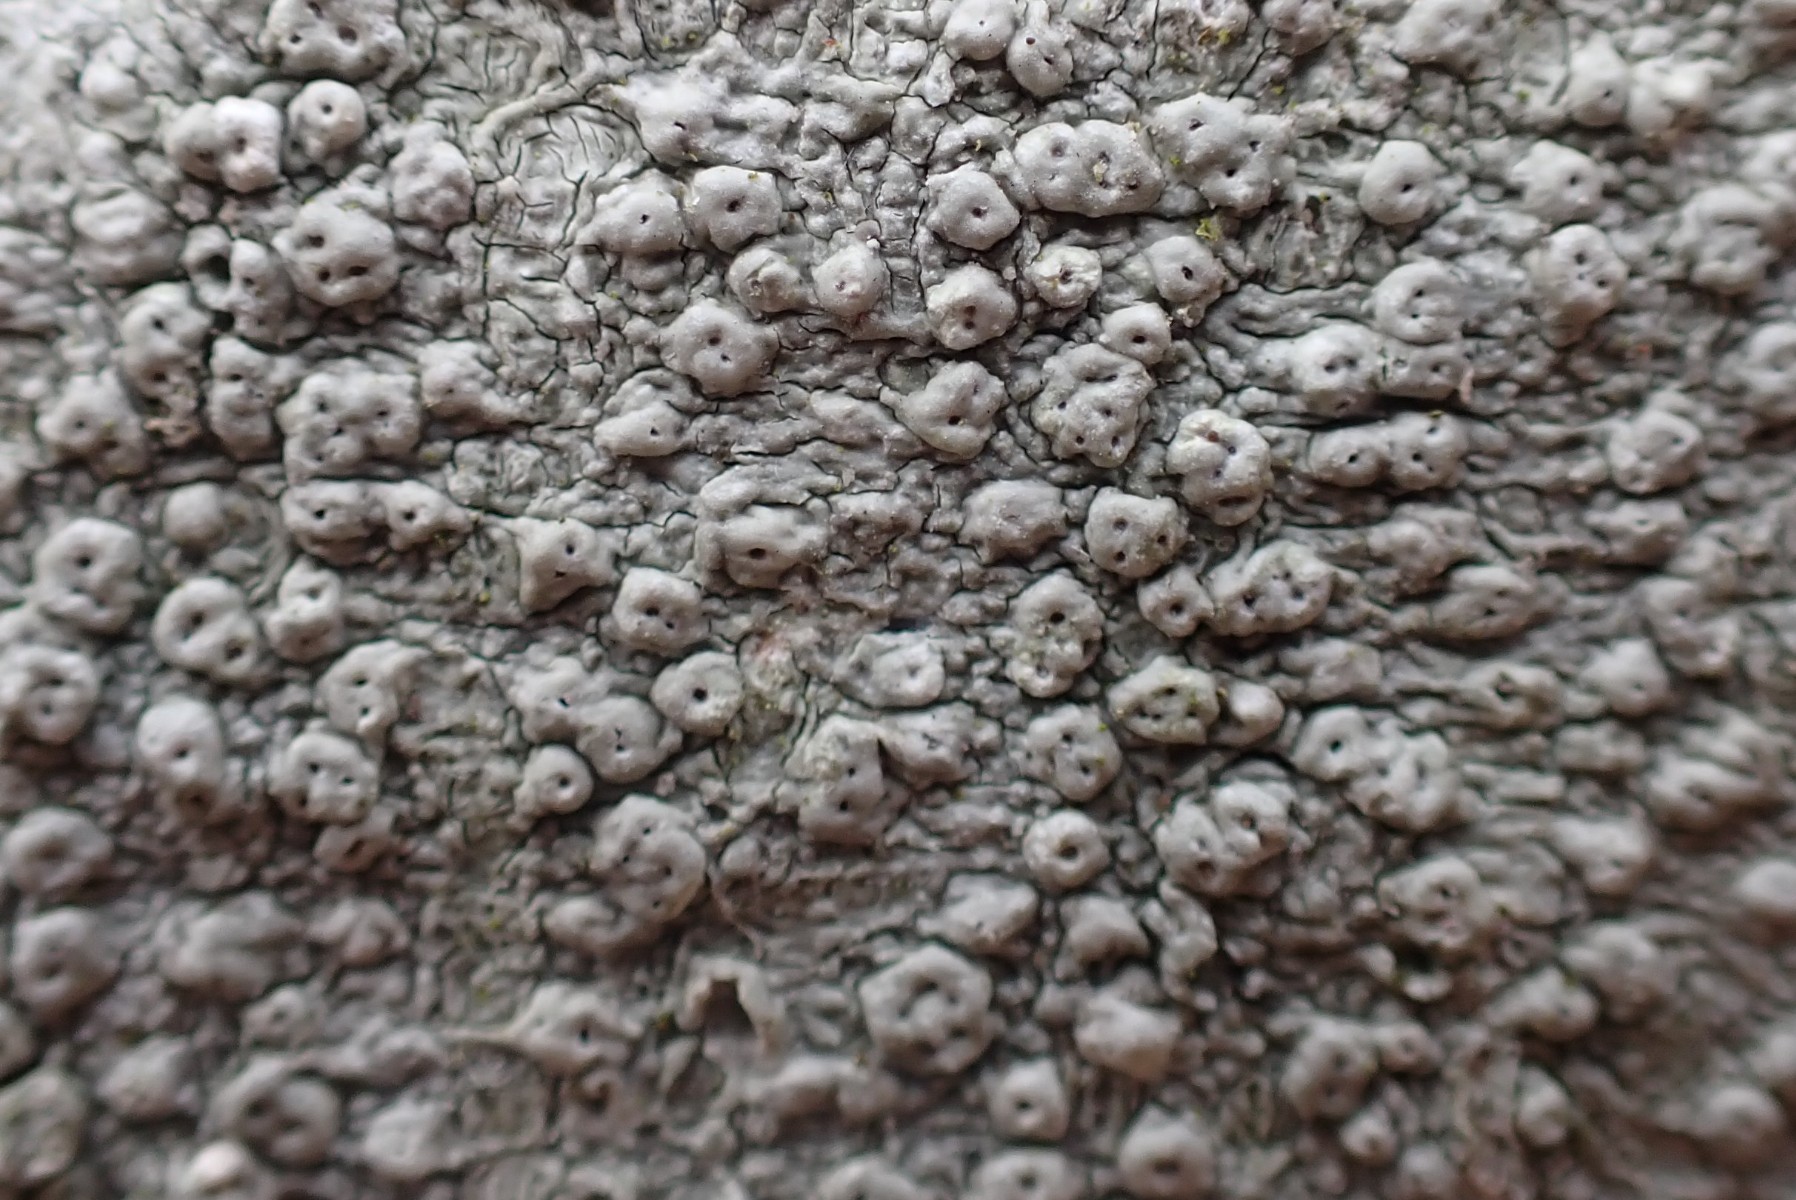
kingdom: Fungi
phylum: Ascomycota
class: Lecanoromycetes
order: Pertusariales
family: Pertusariaceae
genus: Pertusaria
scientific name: Pertusaria pertusa
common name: almindelig prikvortelav
